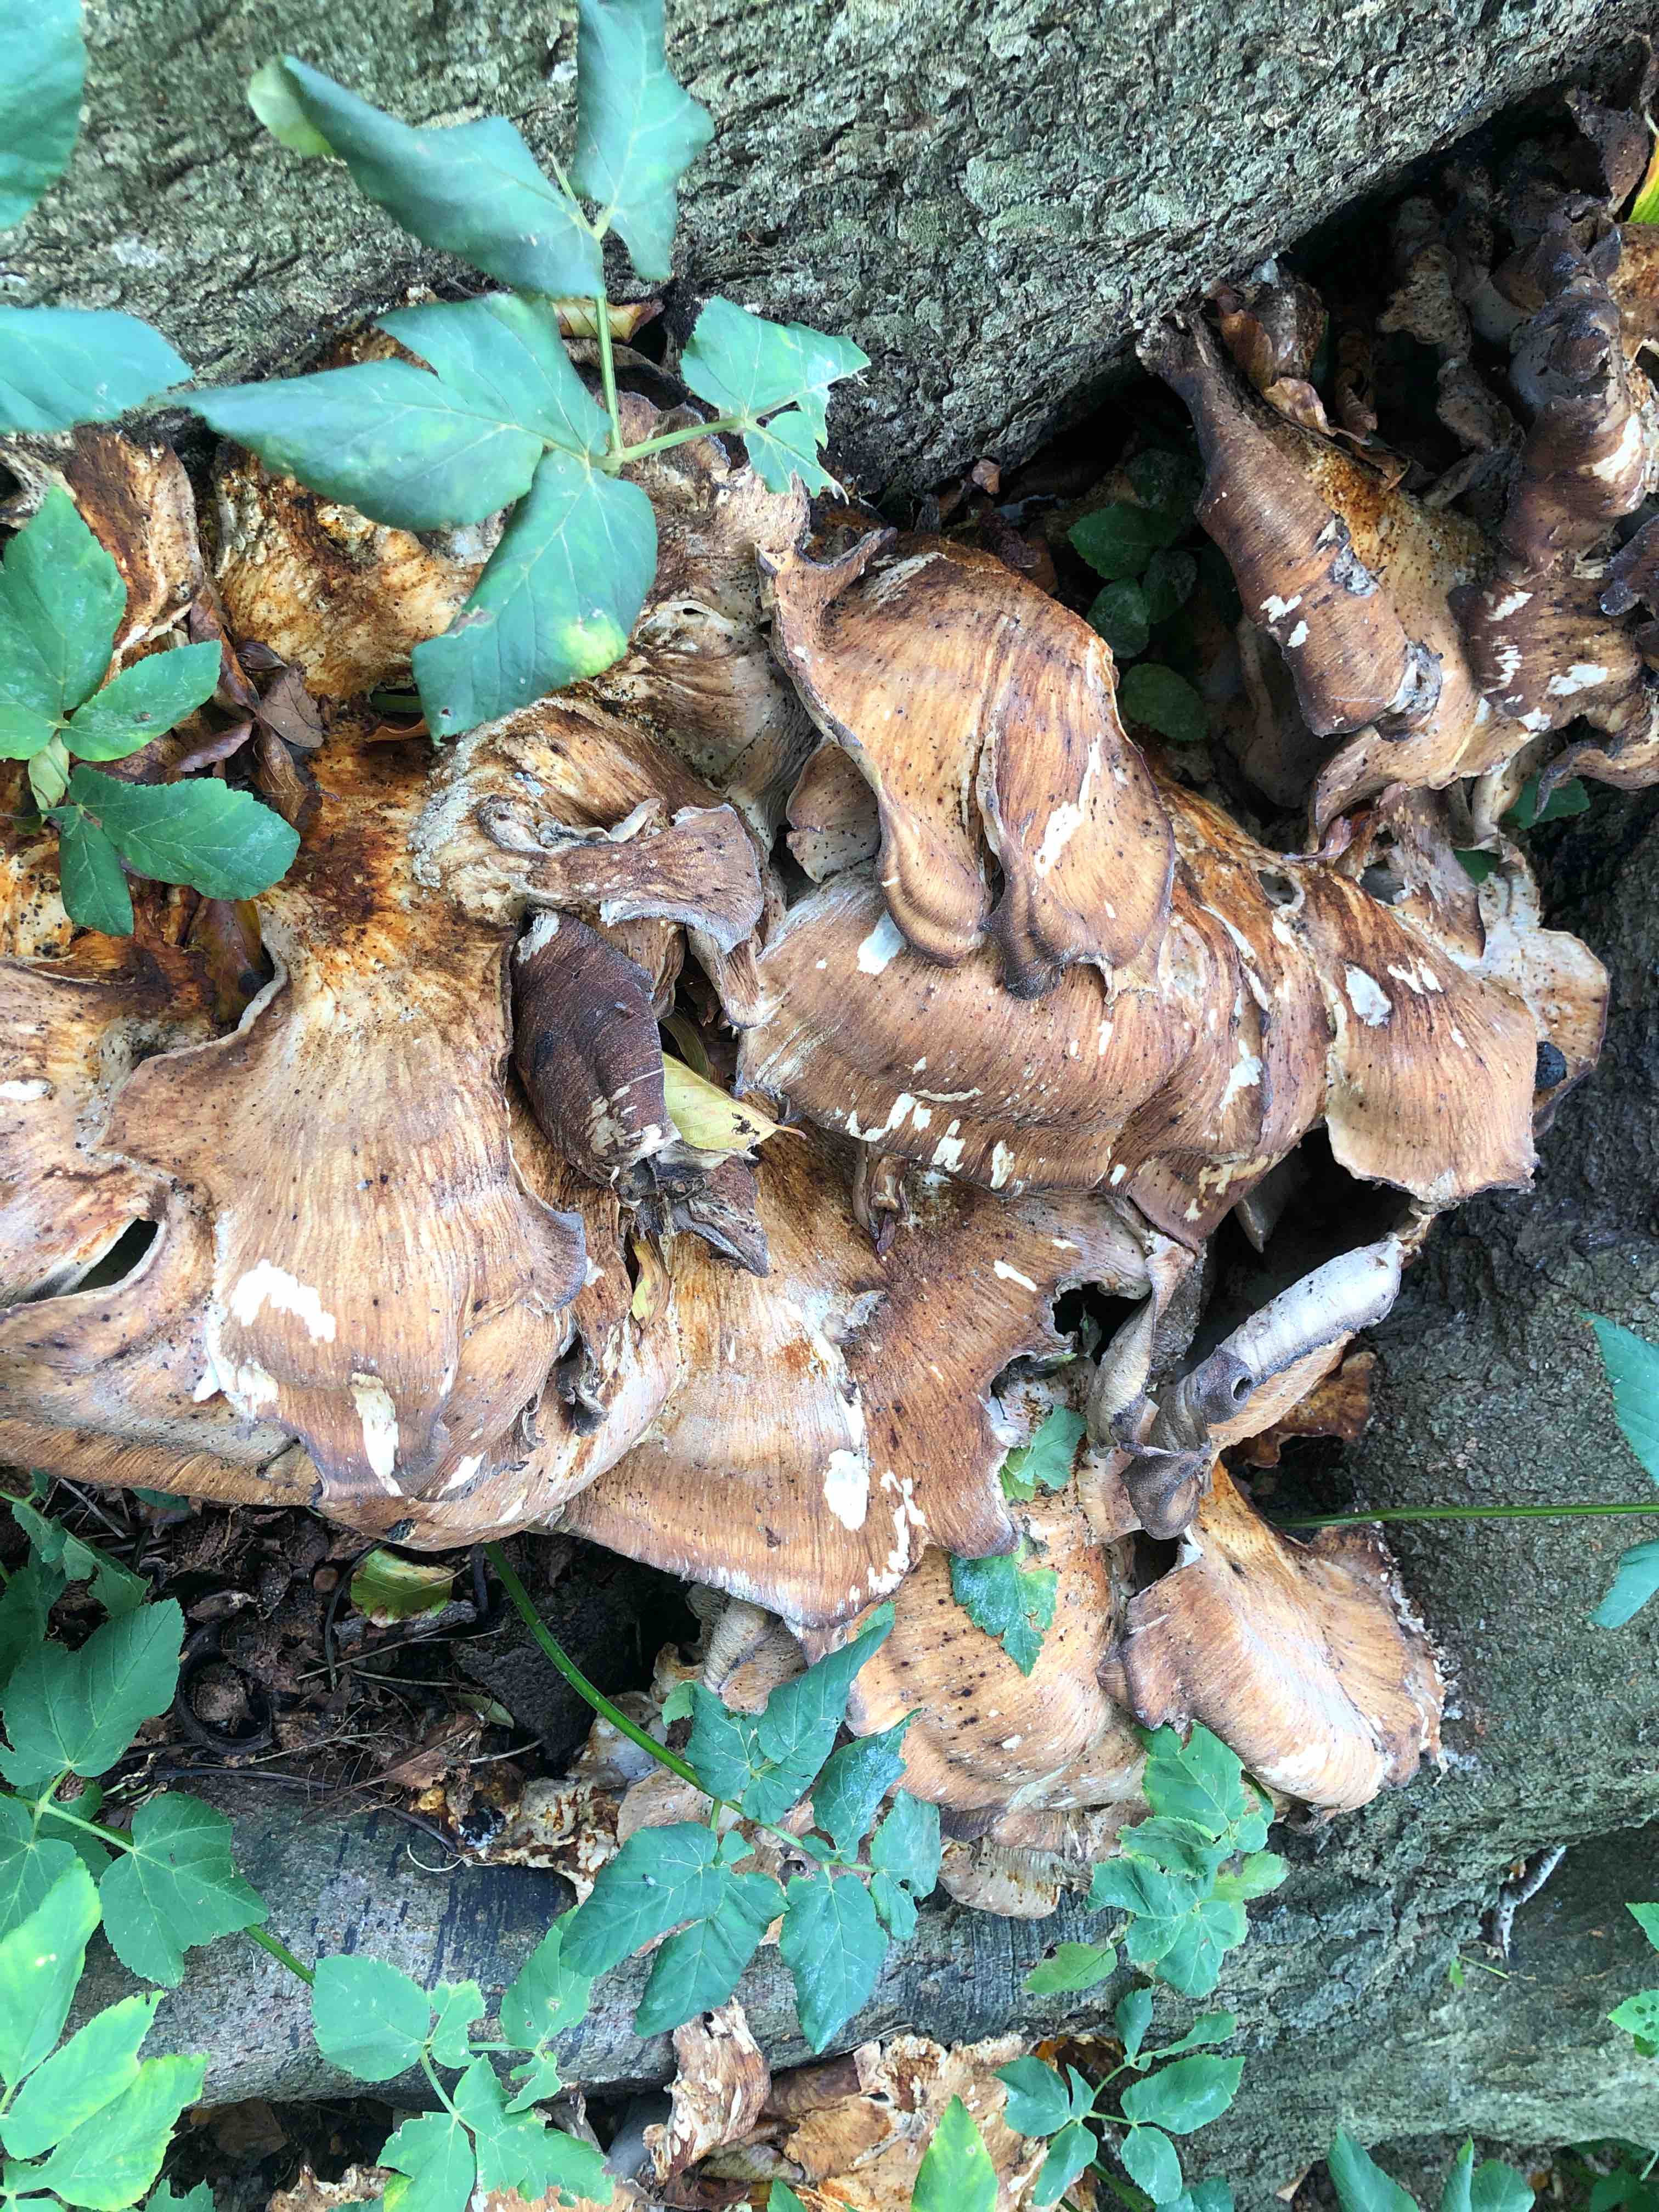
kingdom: Fungi
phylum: Basidiomycota
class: Agaricomycetes
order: Polyporales
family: Meripilaceae
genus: Meripilus
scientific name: Meripilus giganteus
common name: kæmpeporesvamp
